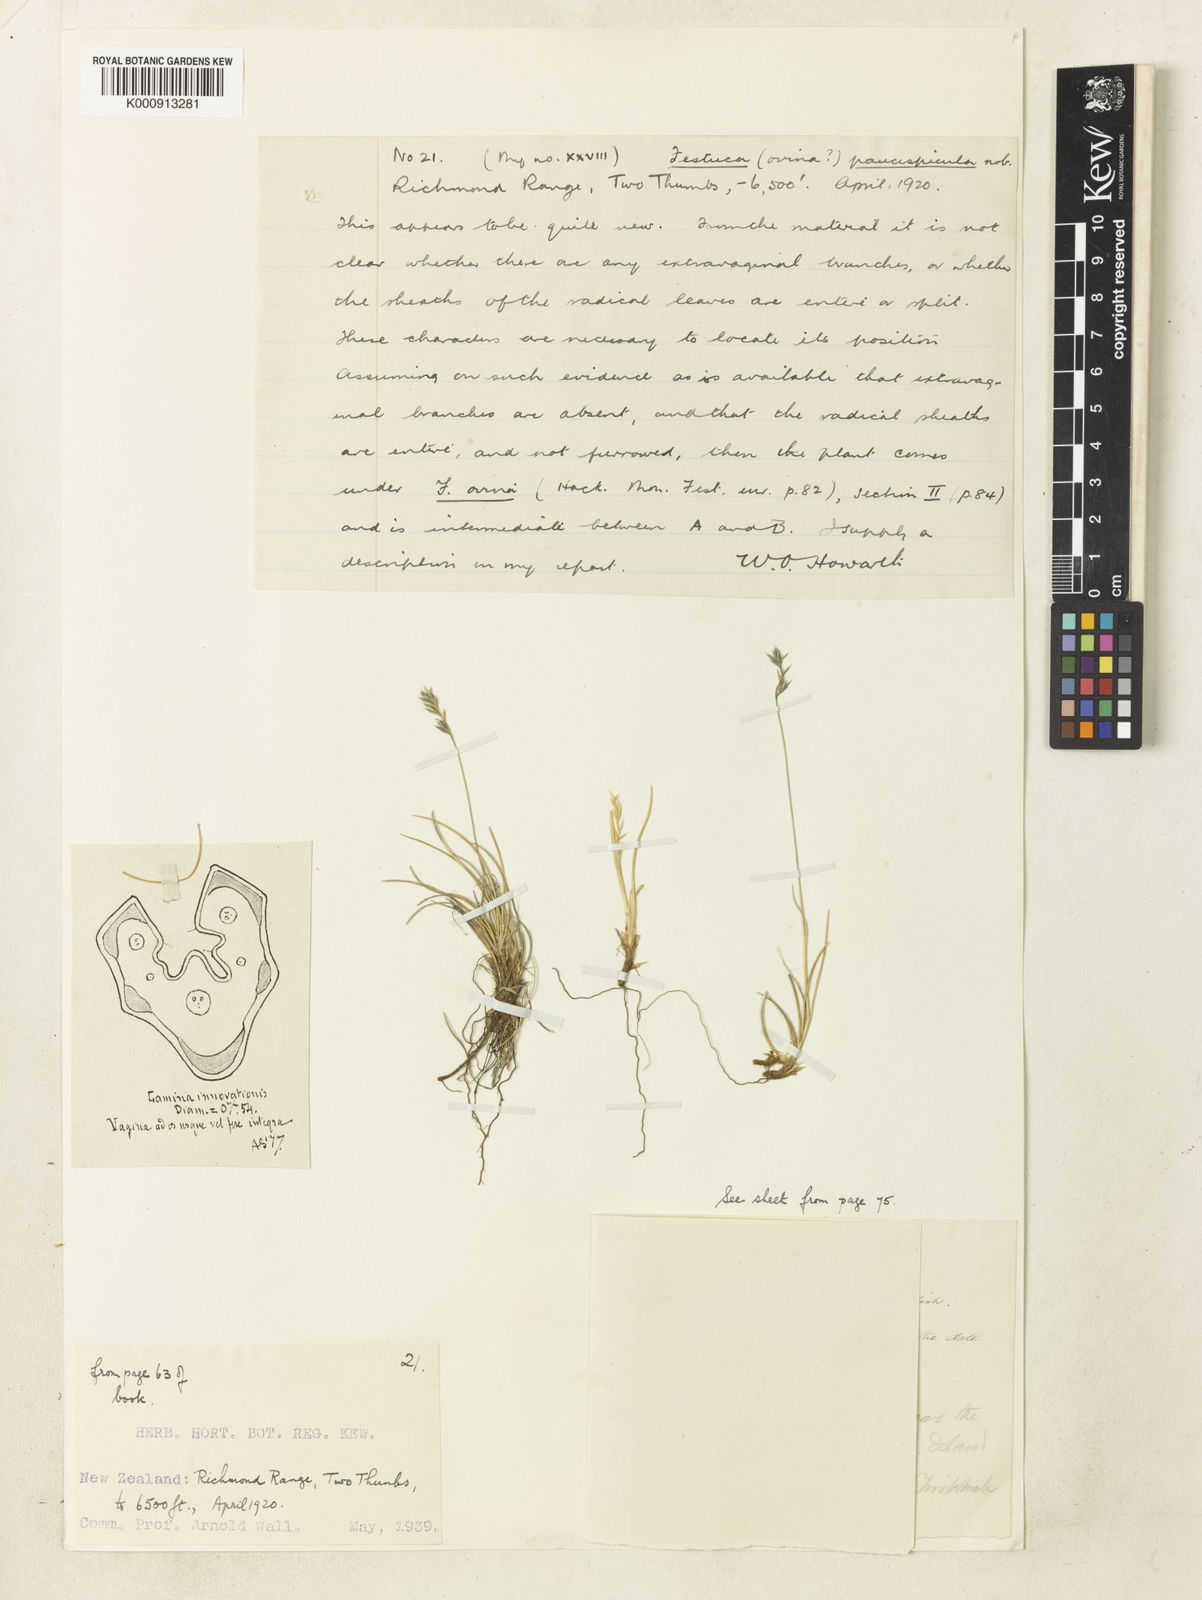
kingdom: Plantae
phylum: Tracheophyta
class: Liliopsida
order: Poales
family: Poaceae
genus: Festuca
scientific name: Festuca rubra
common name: Red fescue
